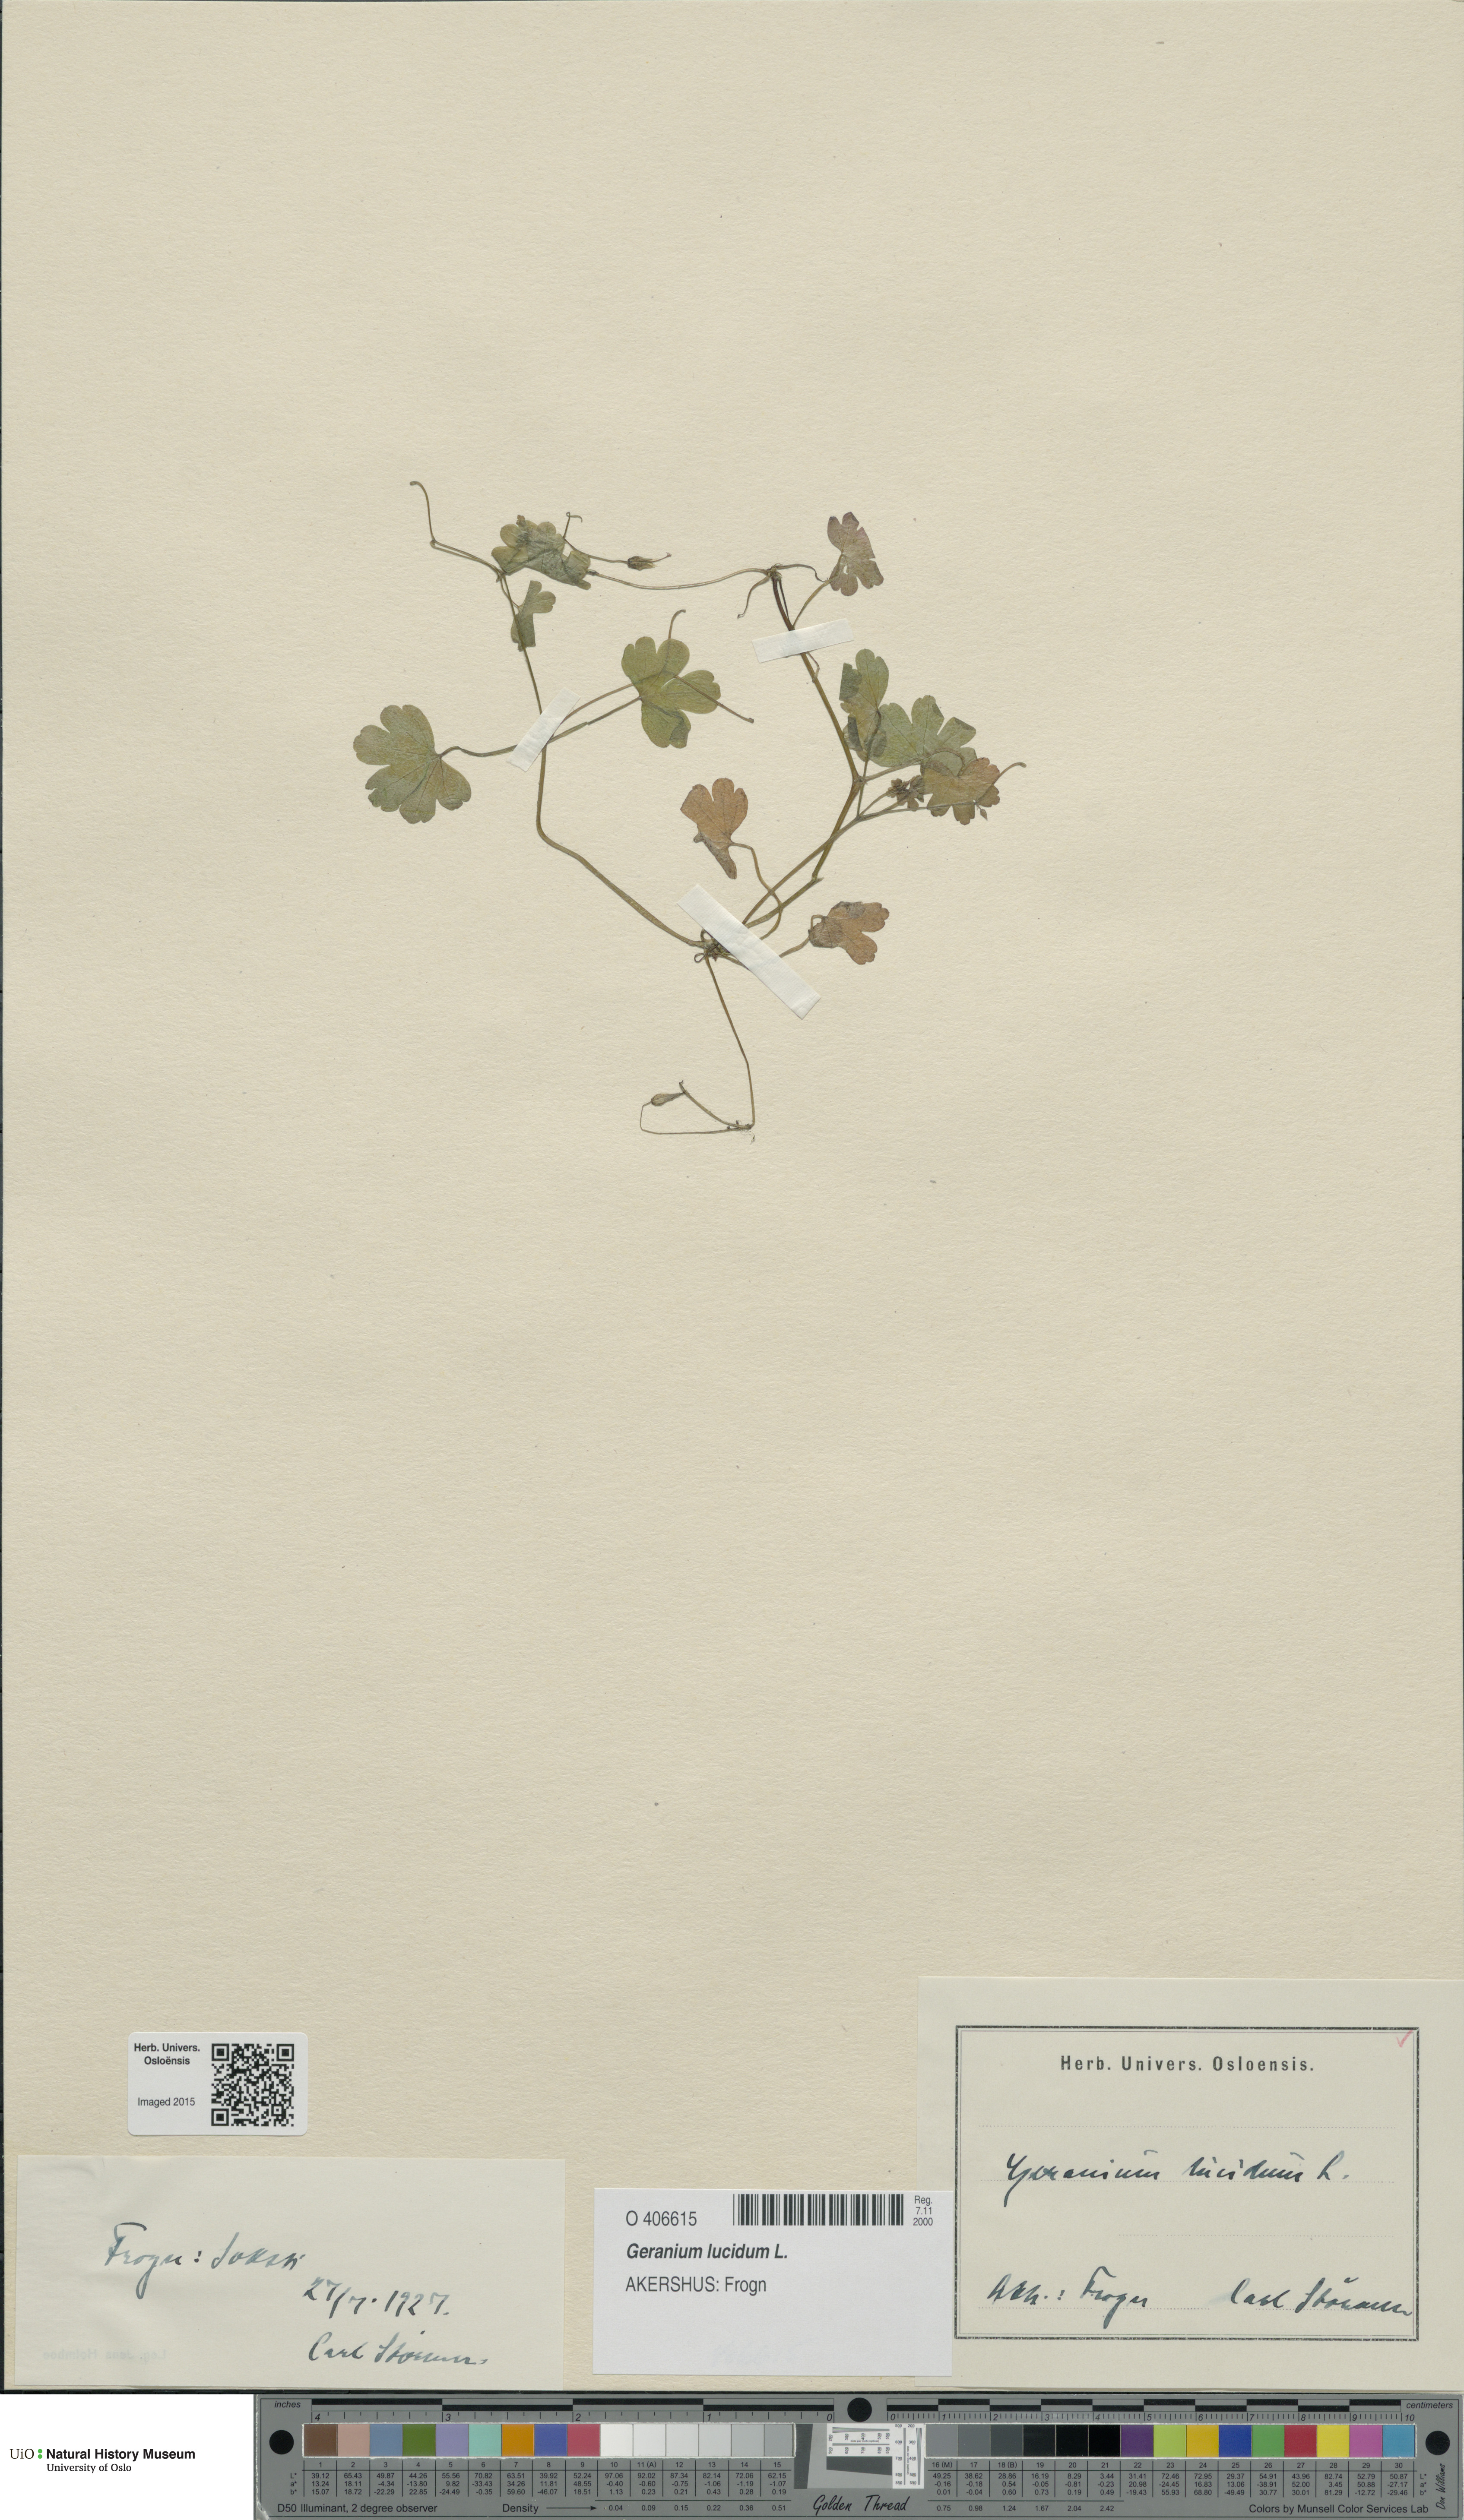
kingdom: Plantae
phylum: Tracheophyta
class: Magnoliopsida
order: Geraniales
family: Geraniaceae
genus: Geranium
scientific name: Geranium lucidum
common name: Shining crane's-bill
